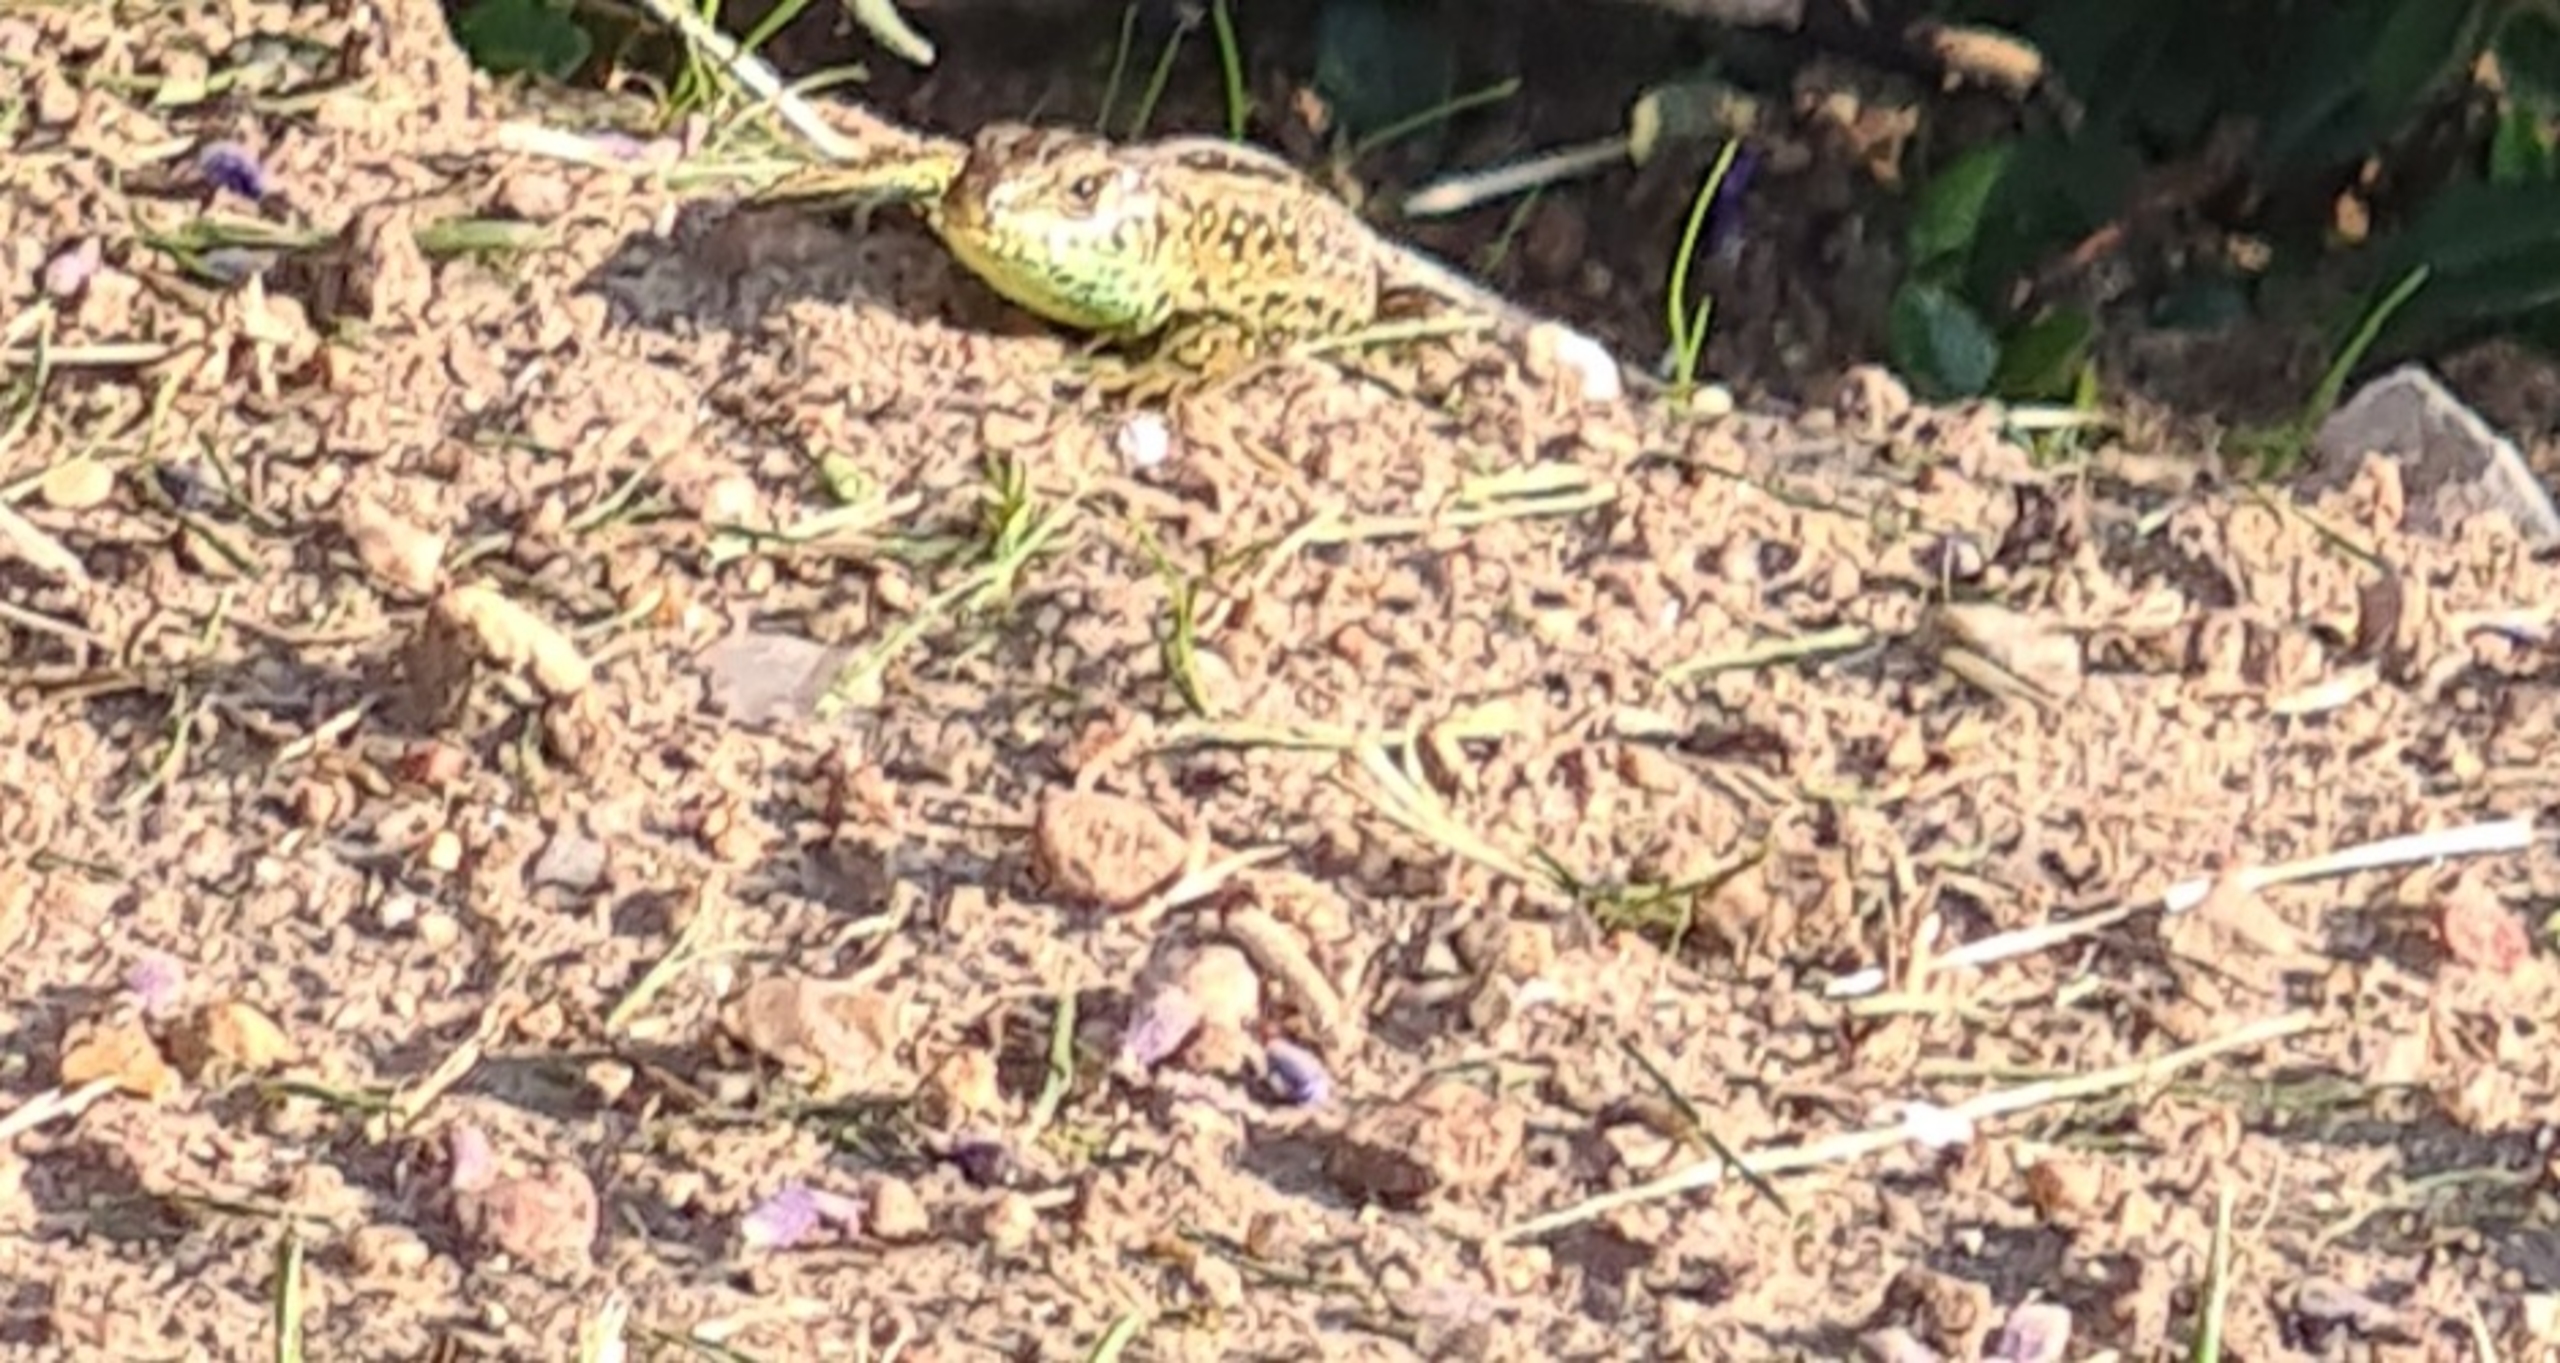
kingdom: Animalia
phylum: Chordata
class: Squamata
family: Lacertidae
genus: Lacerta
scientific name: Lacerta agilis
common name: Markfirben
